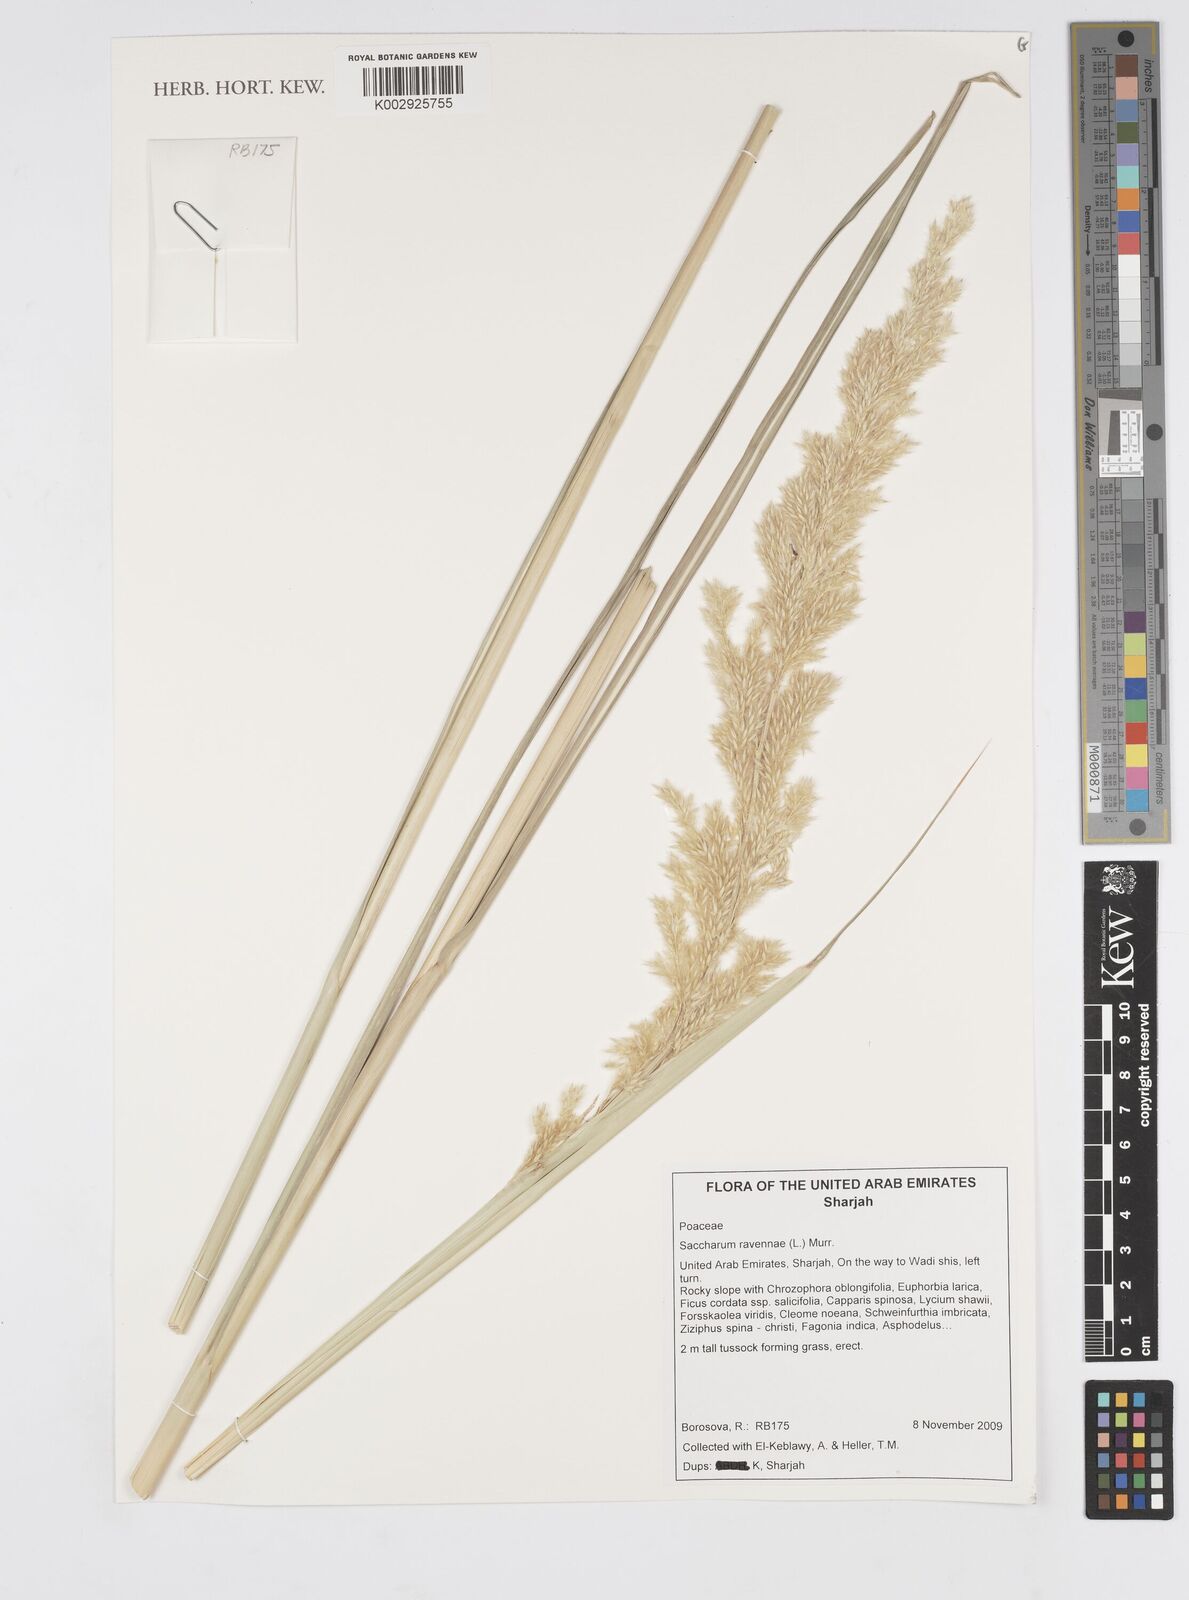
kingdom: Plantae
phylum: Tracheophyta
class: Liliopsida
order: Poales
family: Poaceae
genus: Tripidium
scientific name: Tripidium ravennae
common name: Ravenna grass
